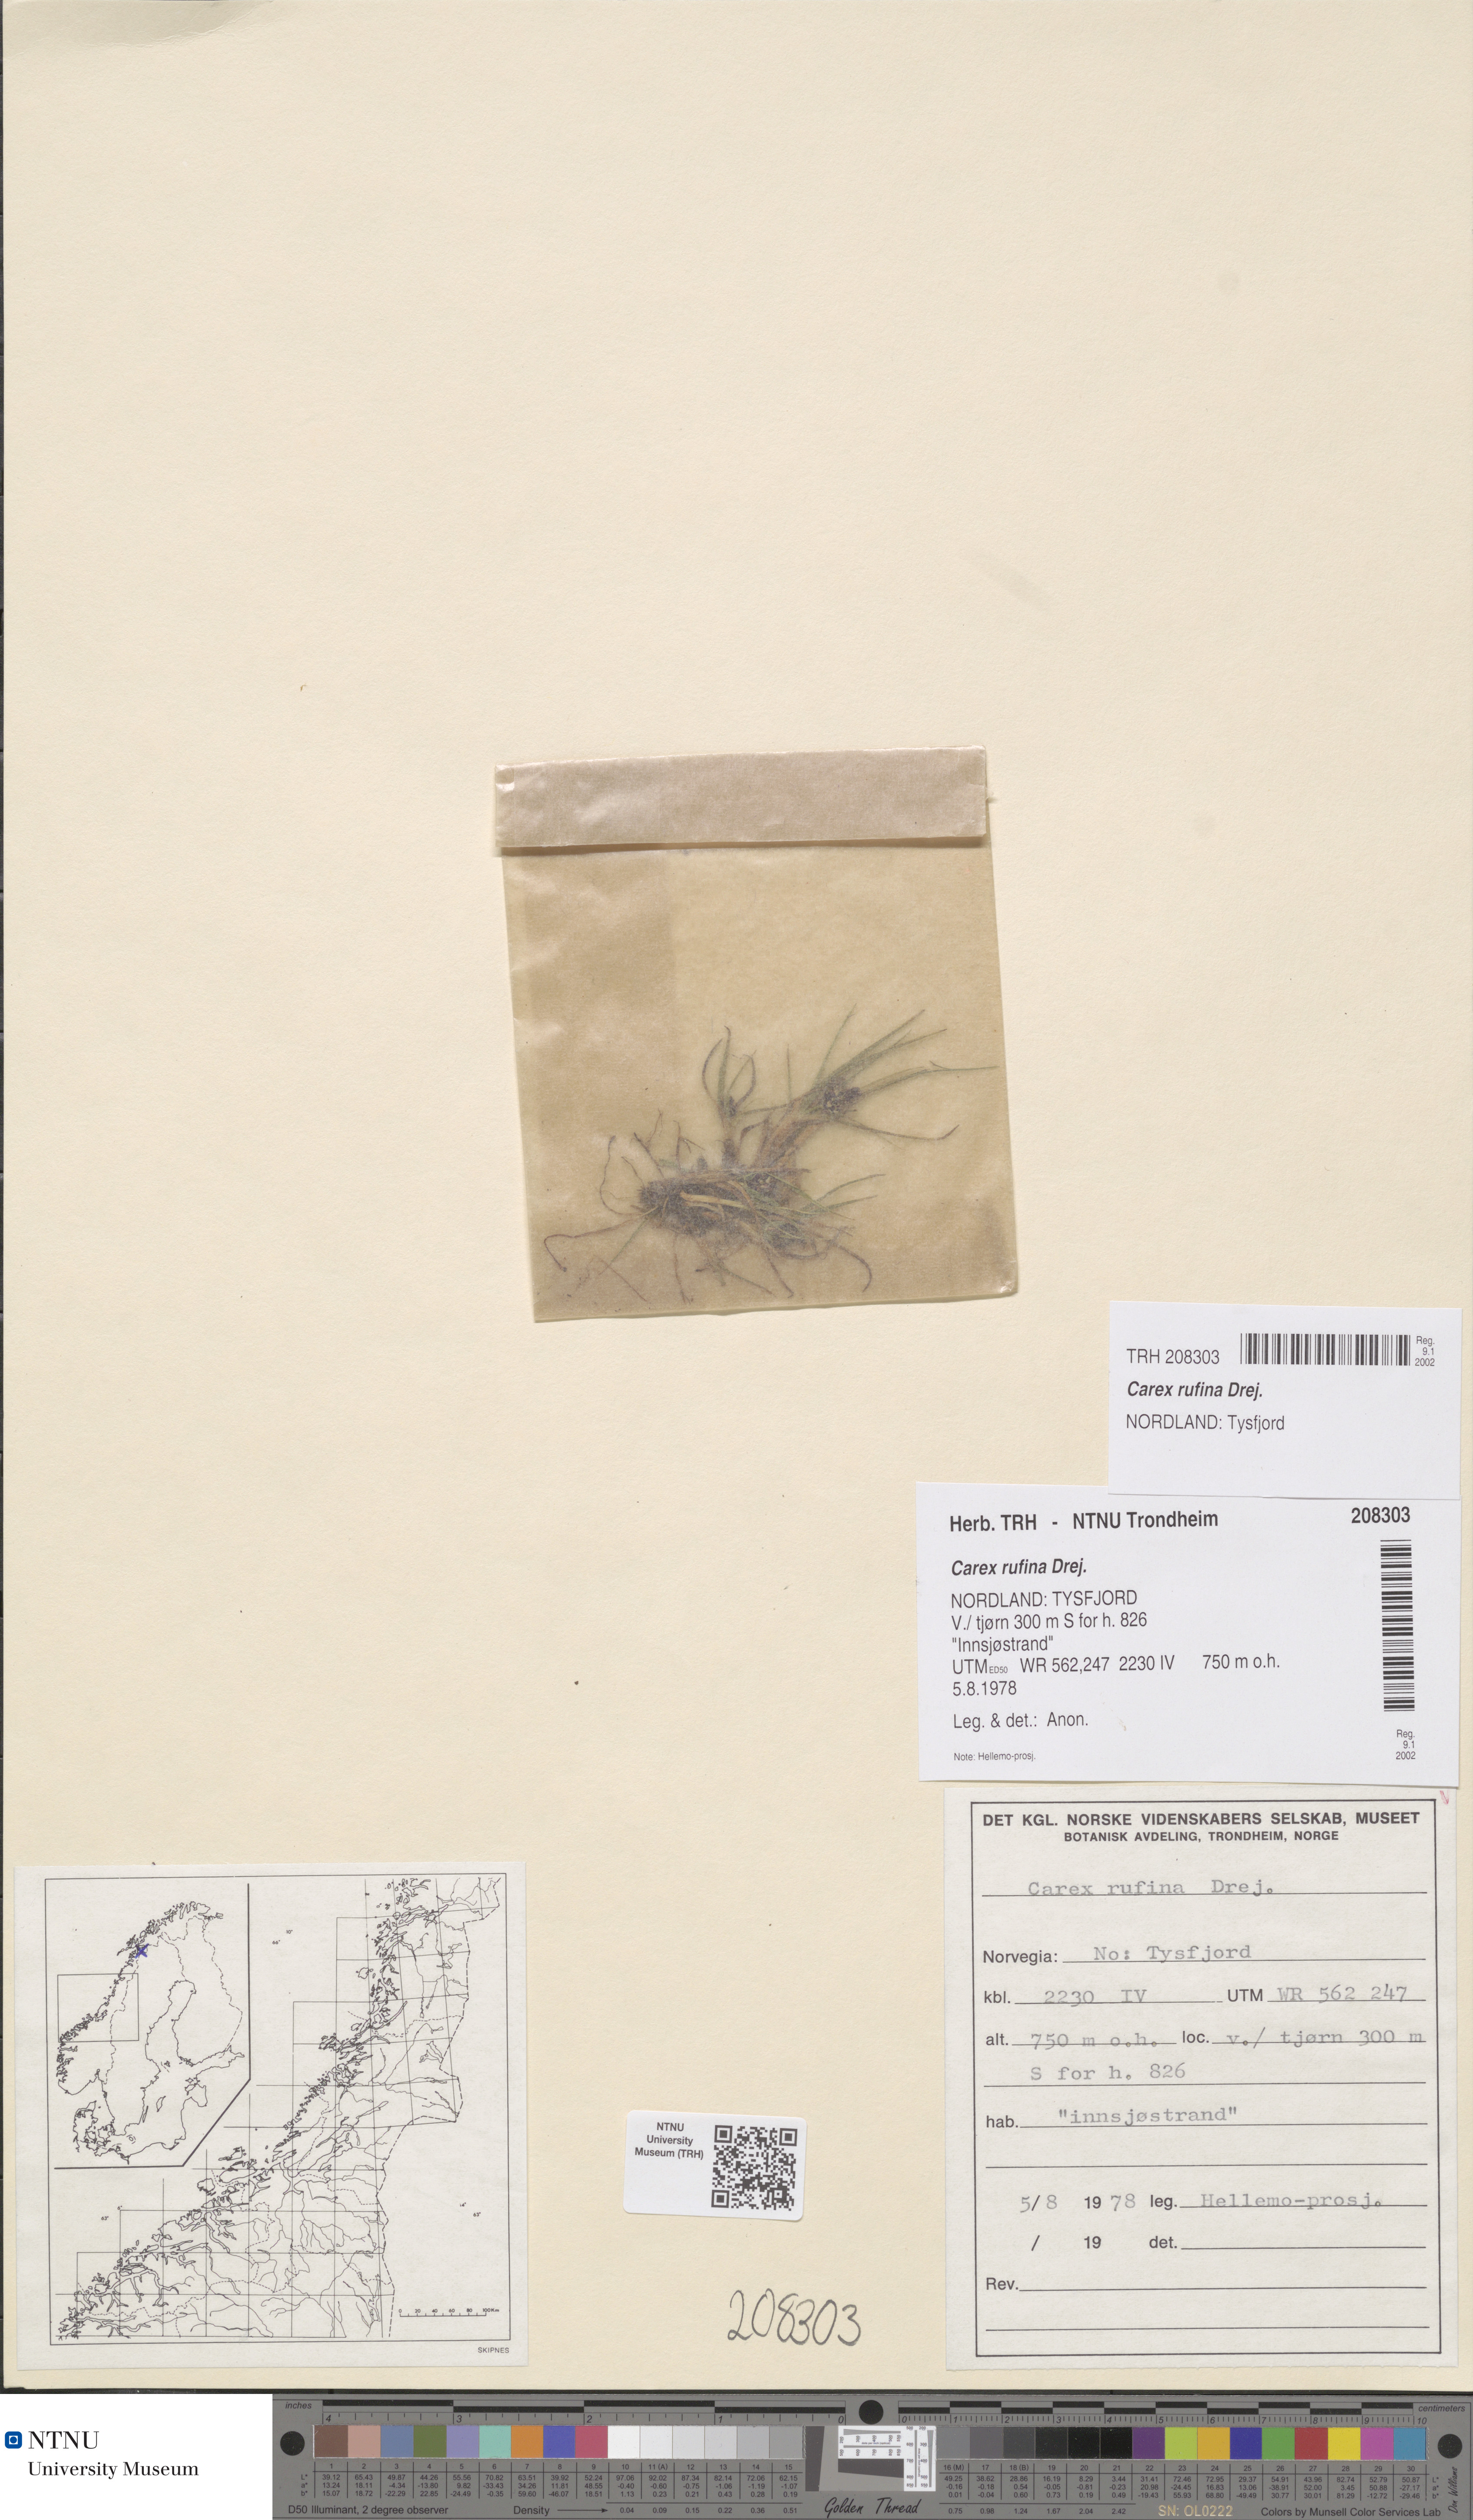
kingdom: Plantae
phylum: Tracheophyta
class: Liliopsida
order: Poales
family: Cyperaceae
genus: Carex
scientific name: Carex rufina
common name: Reddish sedge
